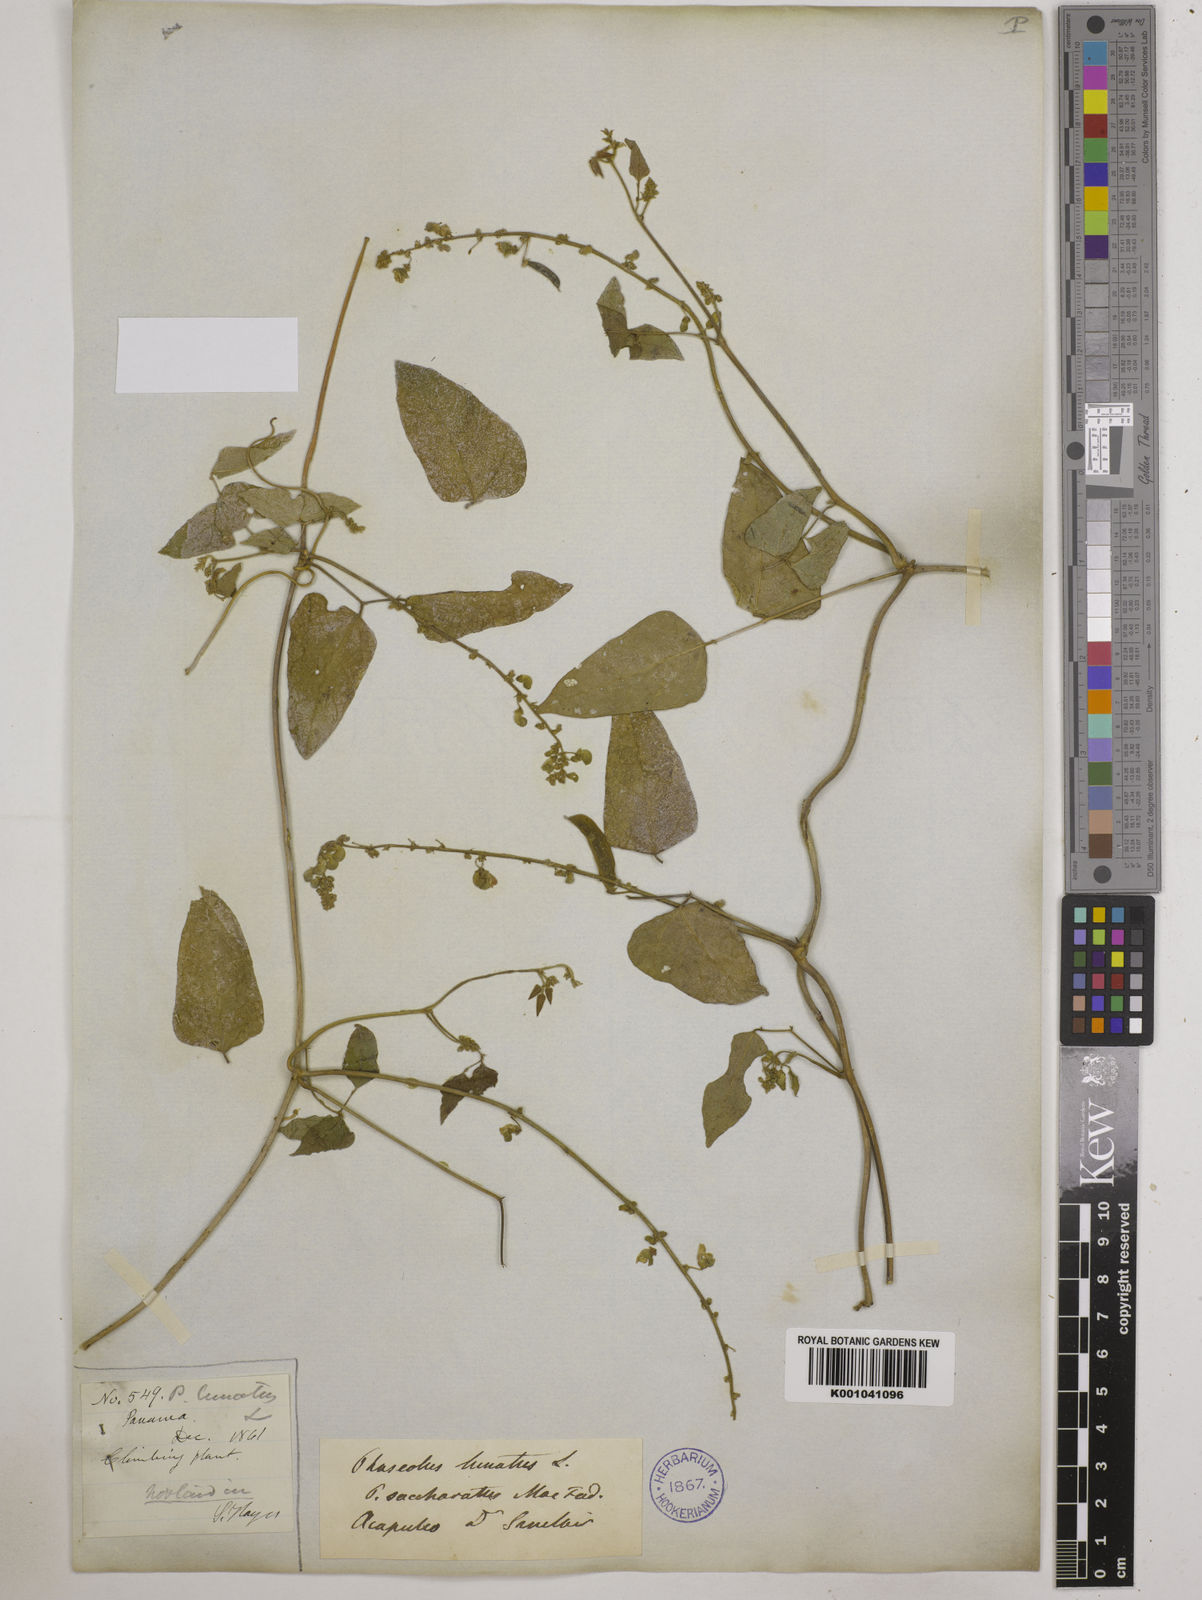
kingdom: Plantae
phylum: Tracheophyta
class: Magnoliopsida
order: Fabales
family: Fabaceae
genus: Phaseolus
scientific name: Phaseolus lunatus
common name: Sieva bean
